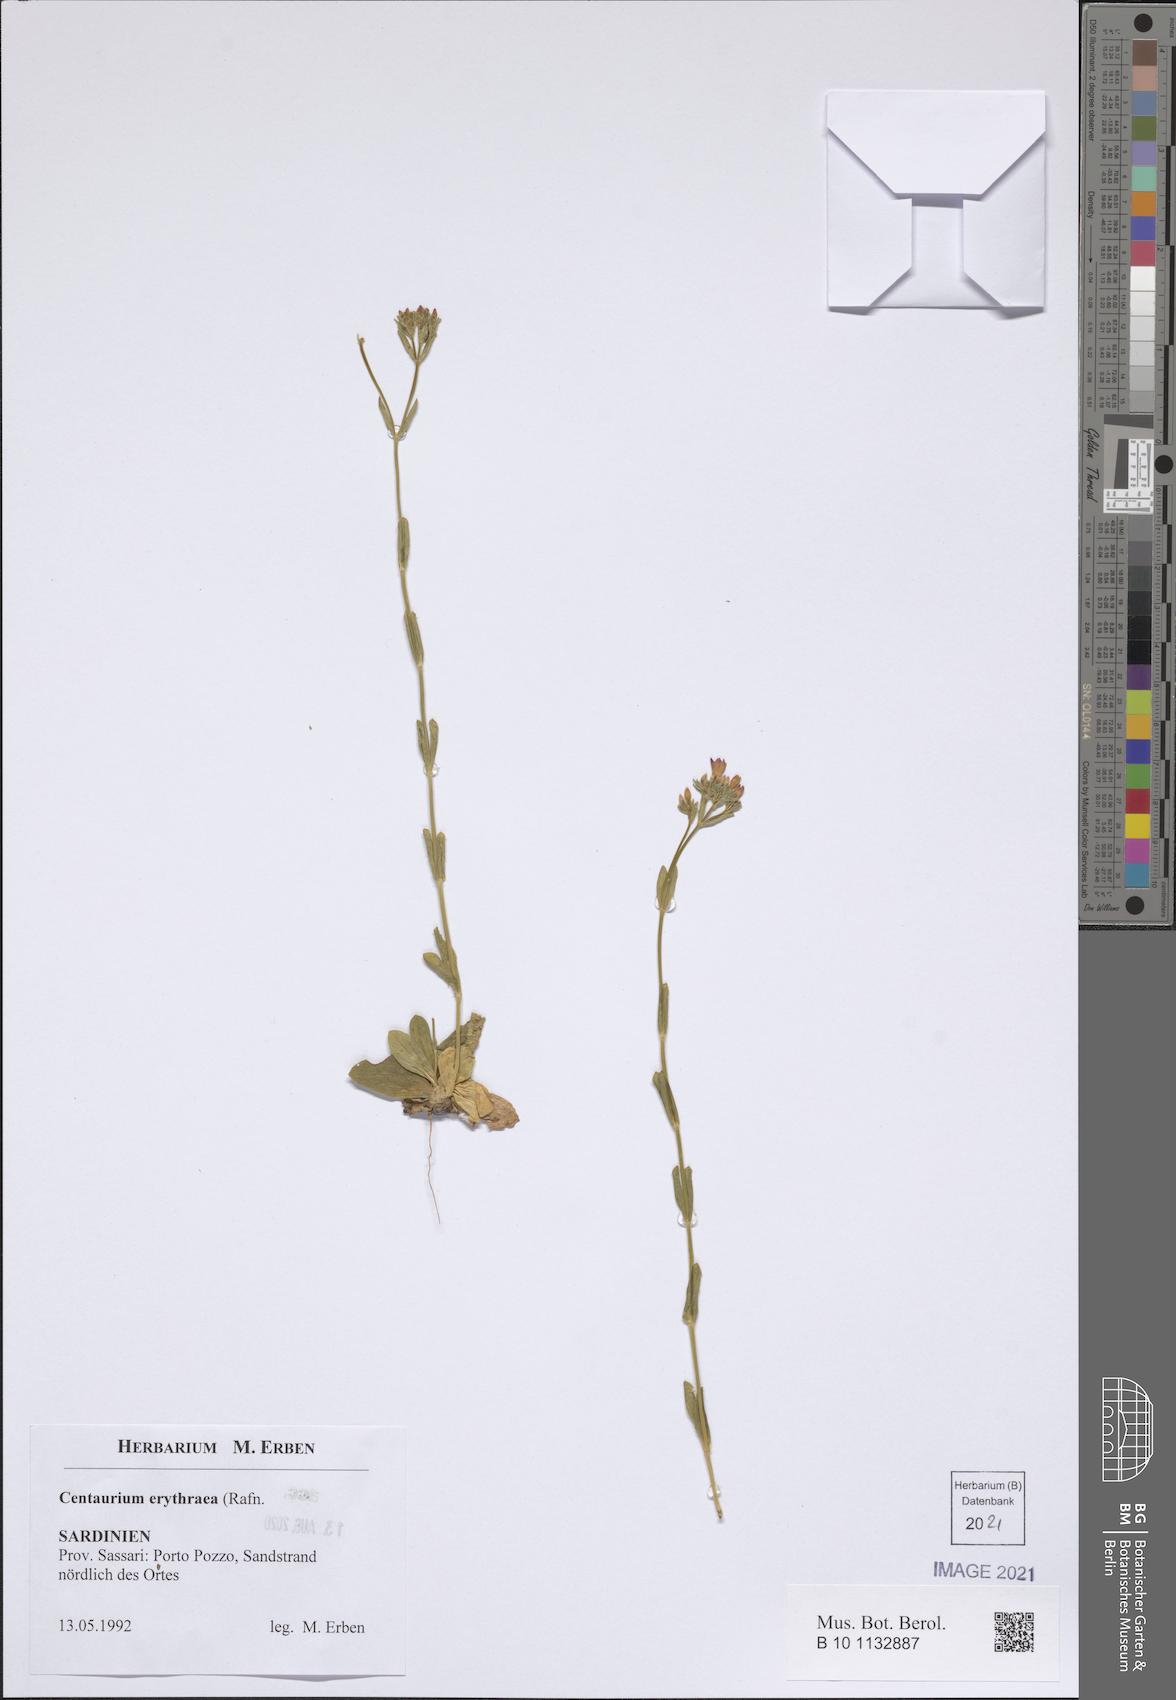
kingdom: Plantae
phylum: Tracheophyta
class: Magnoliopsida
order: Gentianales
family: Gentianaceae
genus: Centaurium
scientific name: Centaurium erythraea
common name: Common centaury
